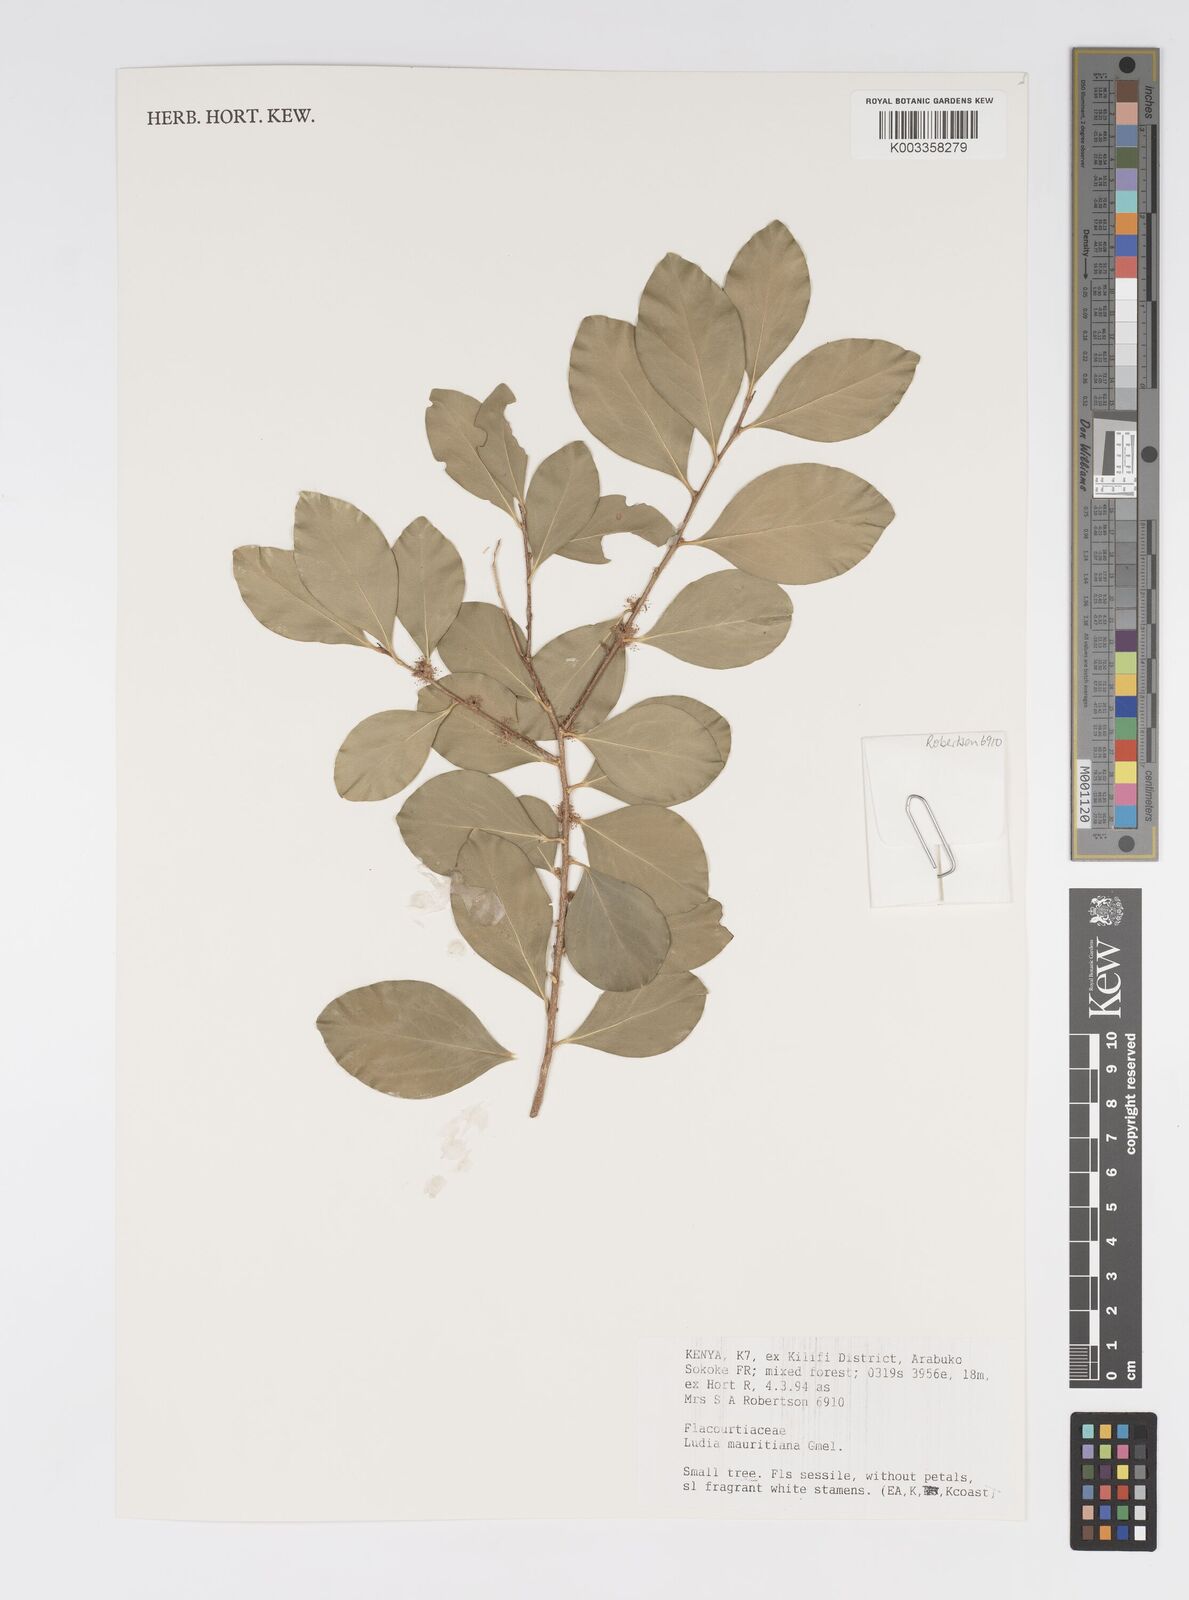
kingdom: Plantae
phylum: Tracheophyta
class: Magnoliopsida
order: Malpighiales
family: Salicaceae
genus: Ludia
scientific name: Ludia mauritiana
